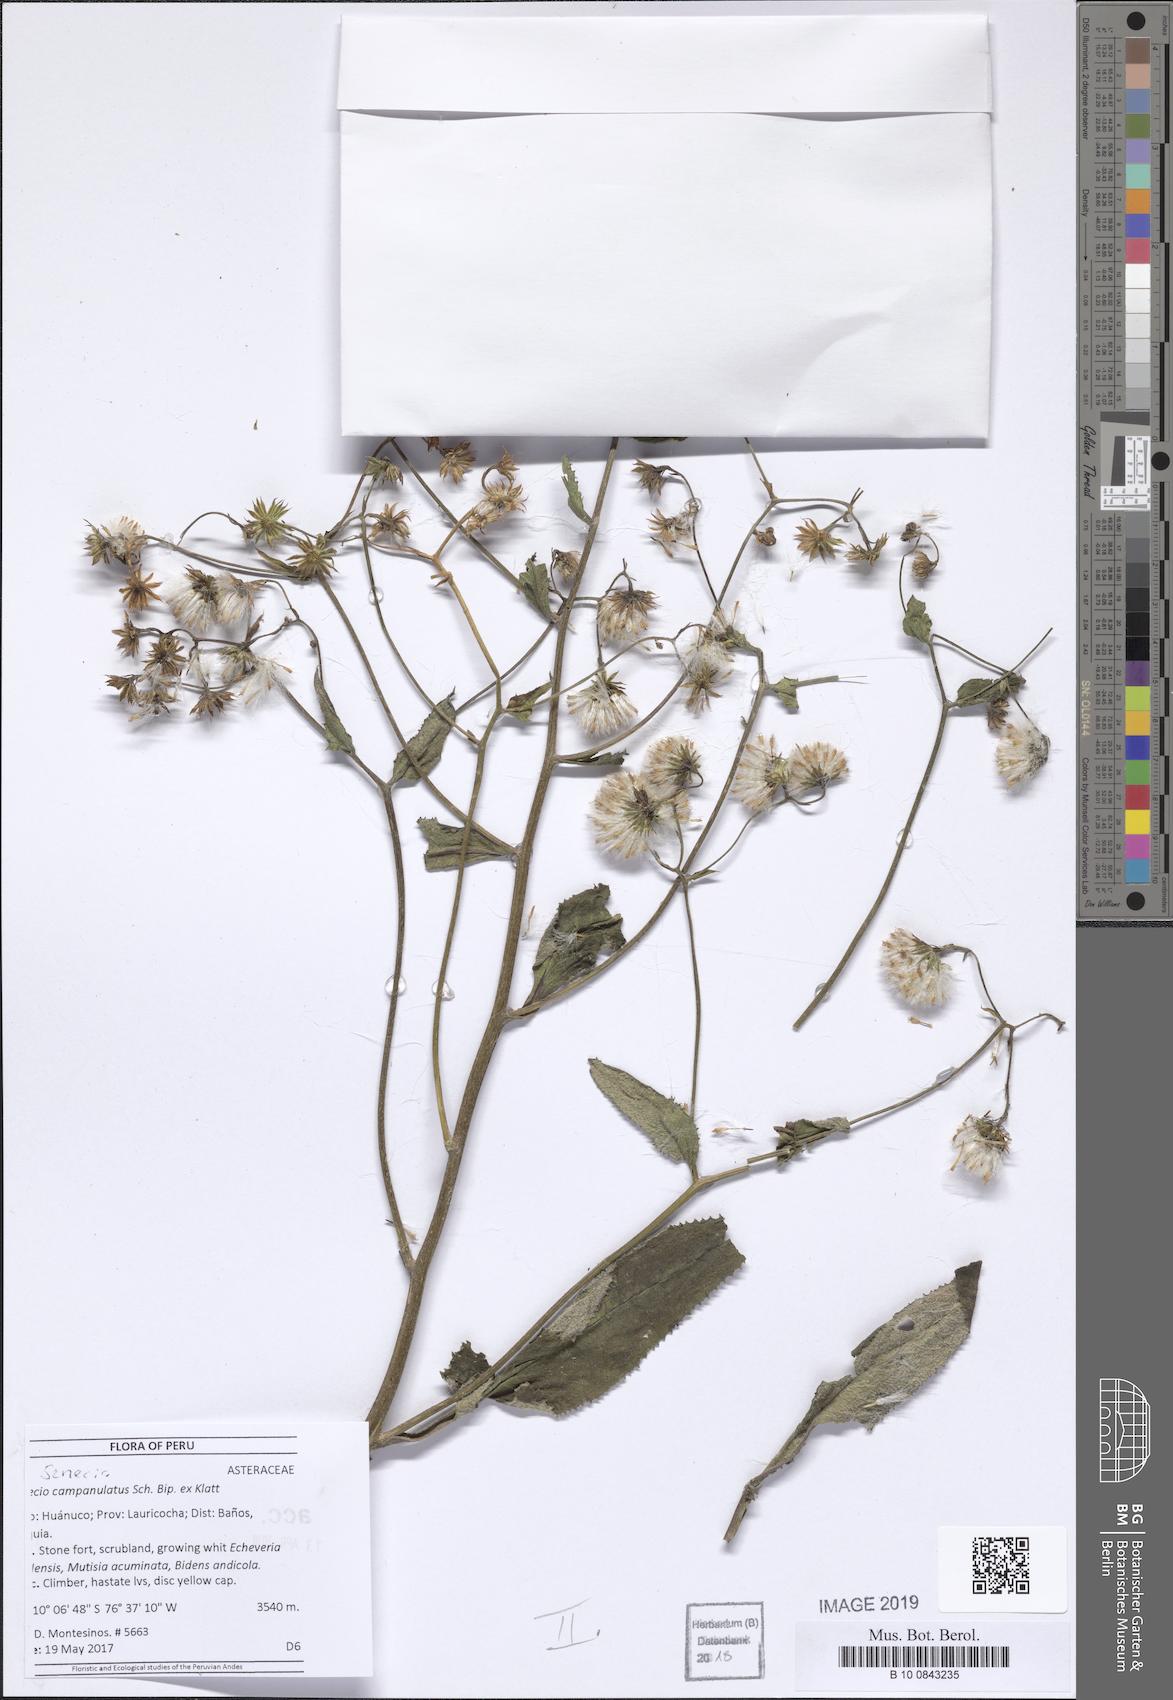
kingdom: Plantae
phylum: Tracheophyta
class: Magnoliopsida
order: Asterales
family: Asteraceae
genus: Aetheolaena
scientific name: Aetheolaena betonicifolia
